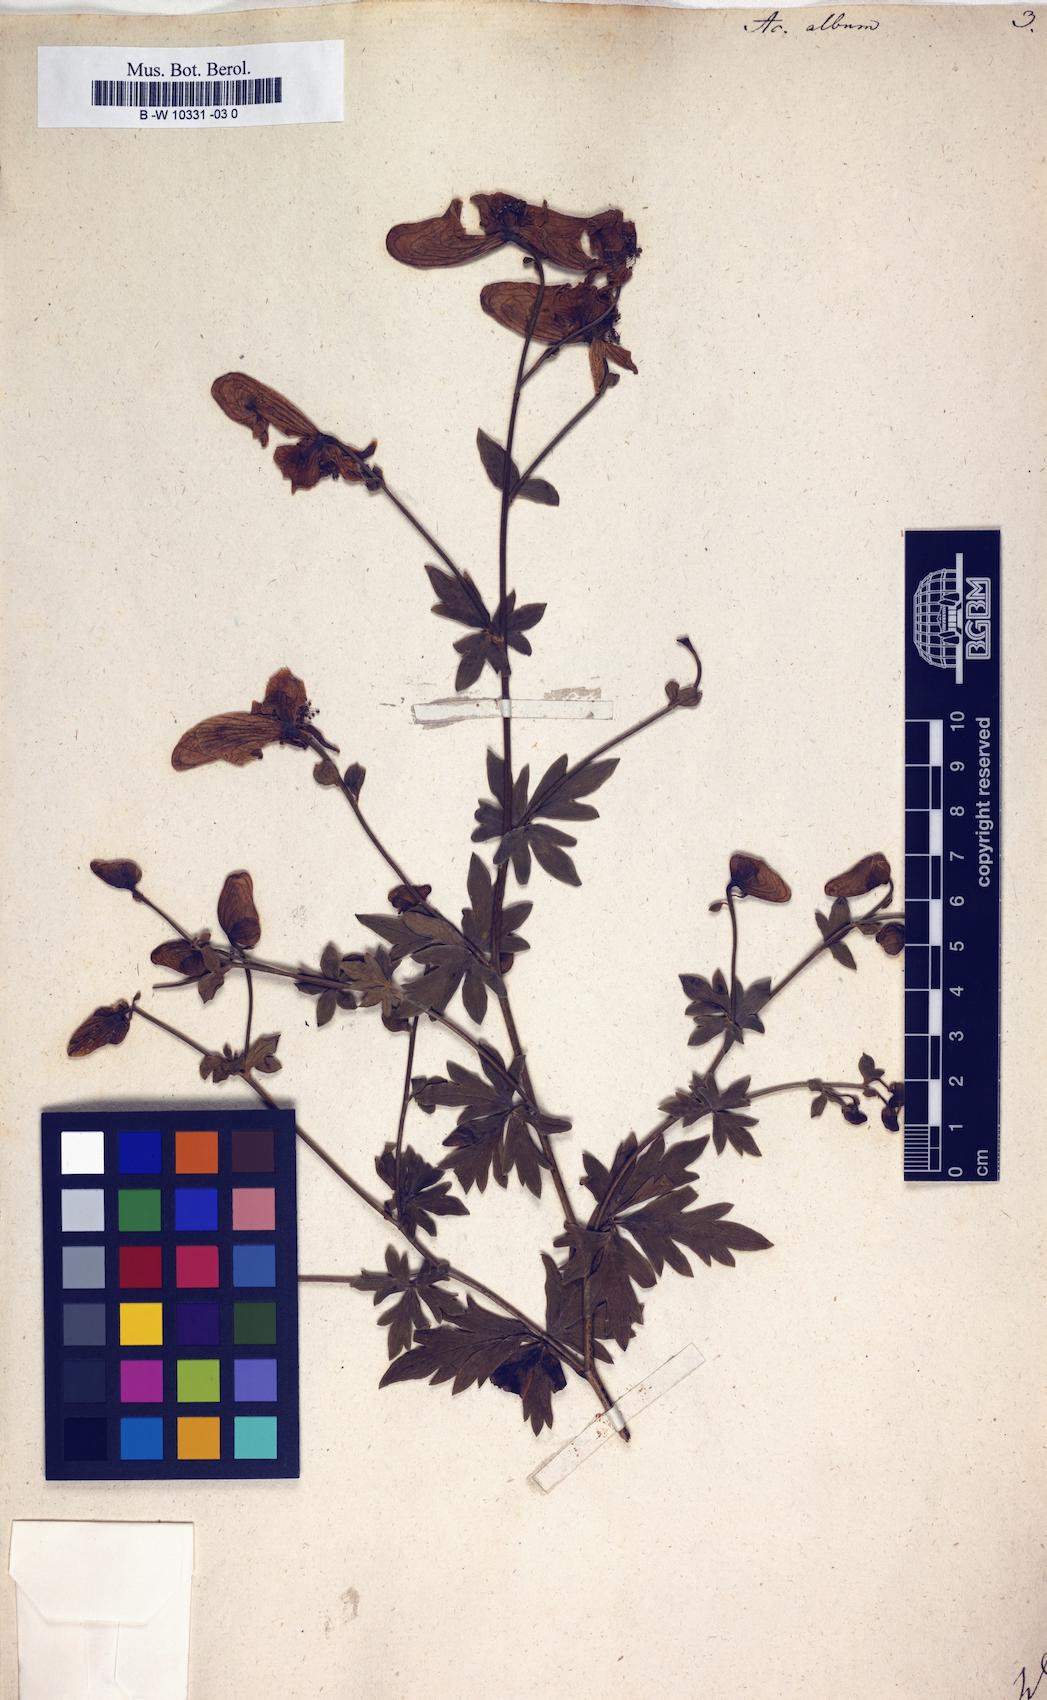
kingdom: Plantae
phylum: Tracheophyta
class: Magnoliopsida
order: Ranunculales
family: Ranunculaceae
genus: Aconitum
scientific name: Aconitum variegatum
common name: Manchurian monkshood
